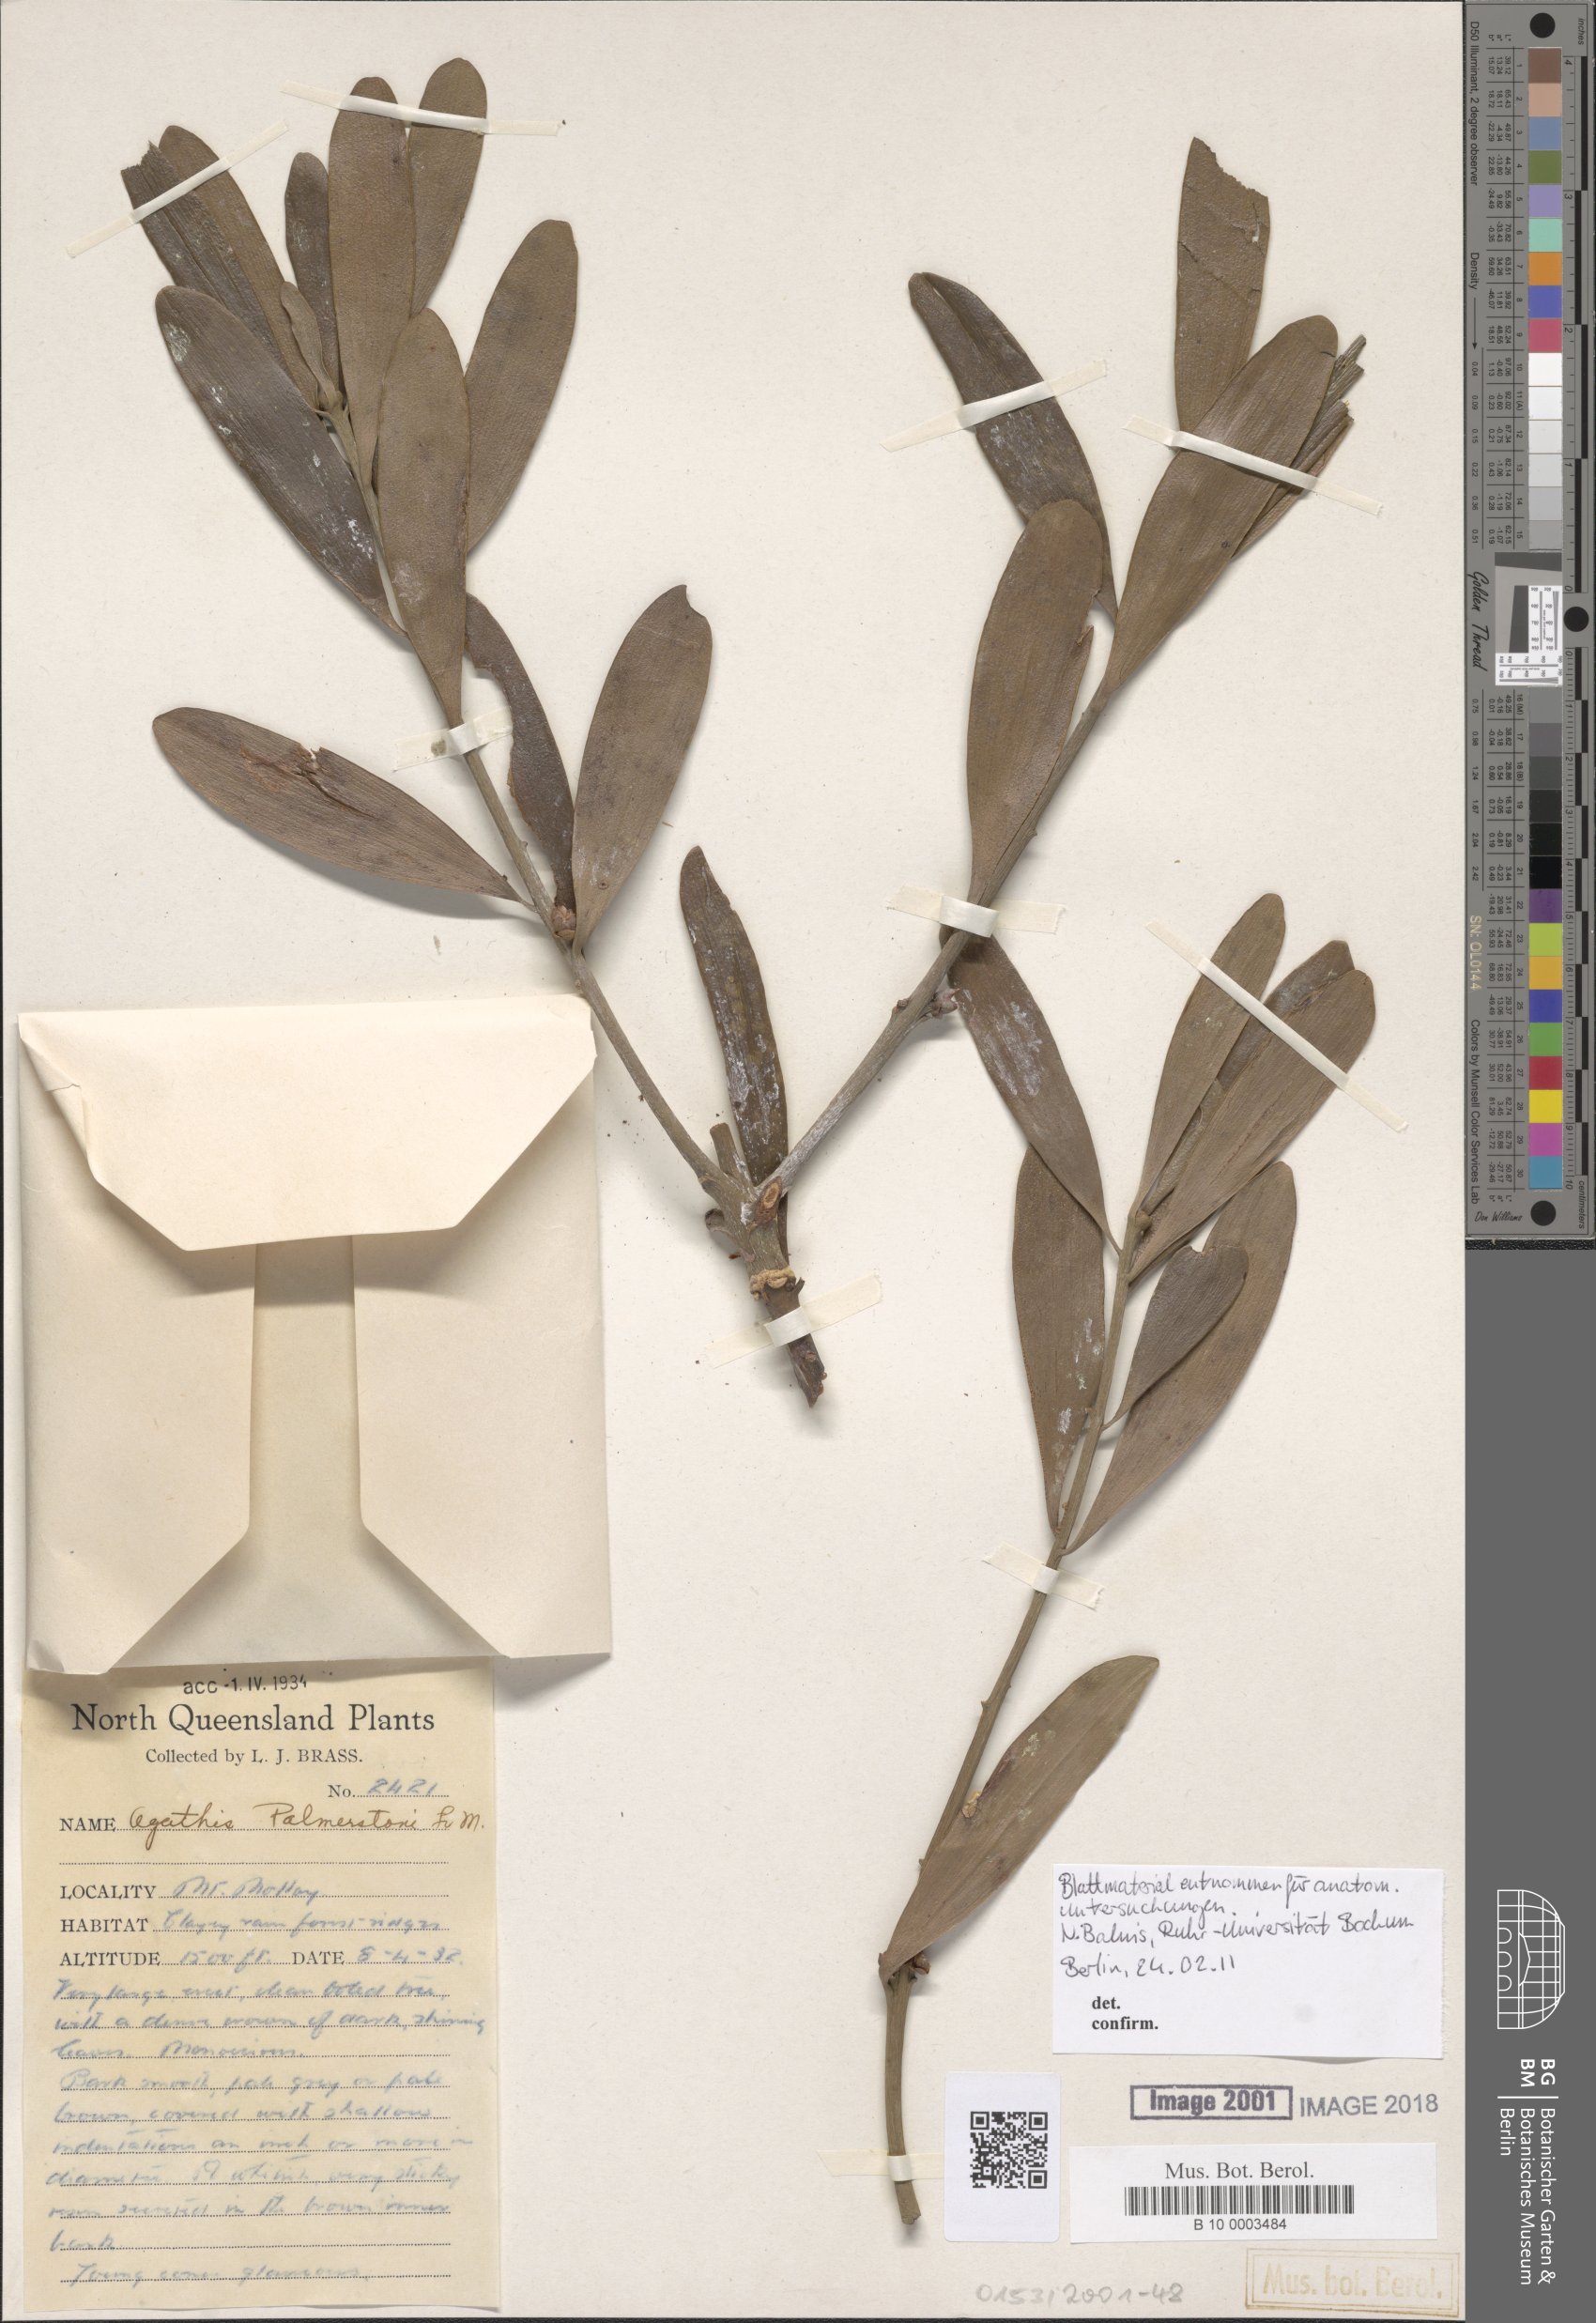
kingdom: Plantae
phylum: Tracheophyta
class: Pinopsida
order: Pinales
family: Araucariaceae
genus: Agathis
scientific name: Agathis robusta
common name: Australian-kauri
